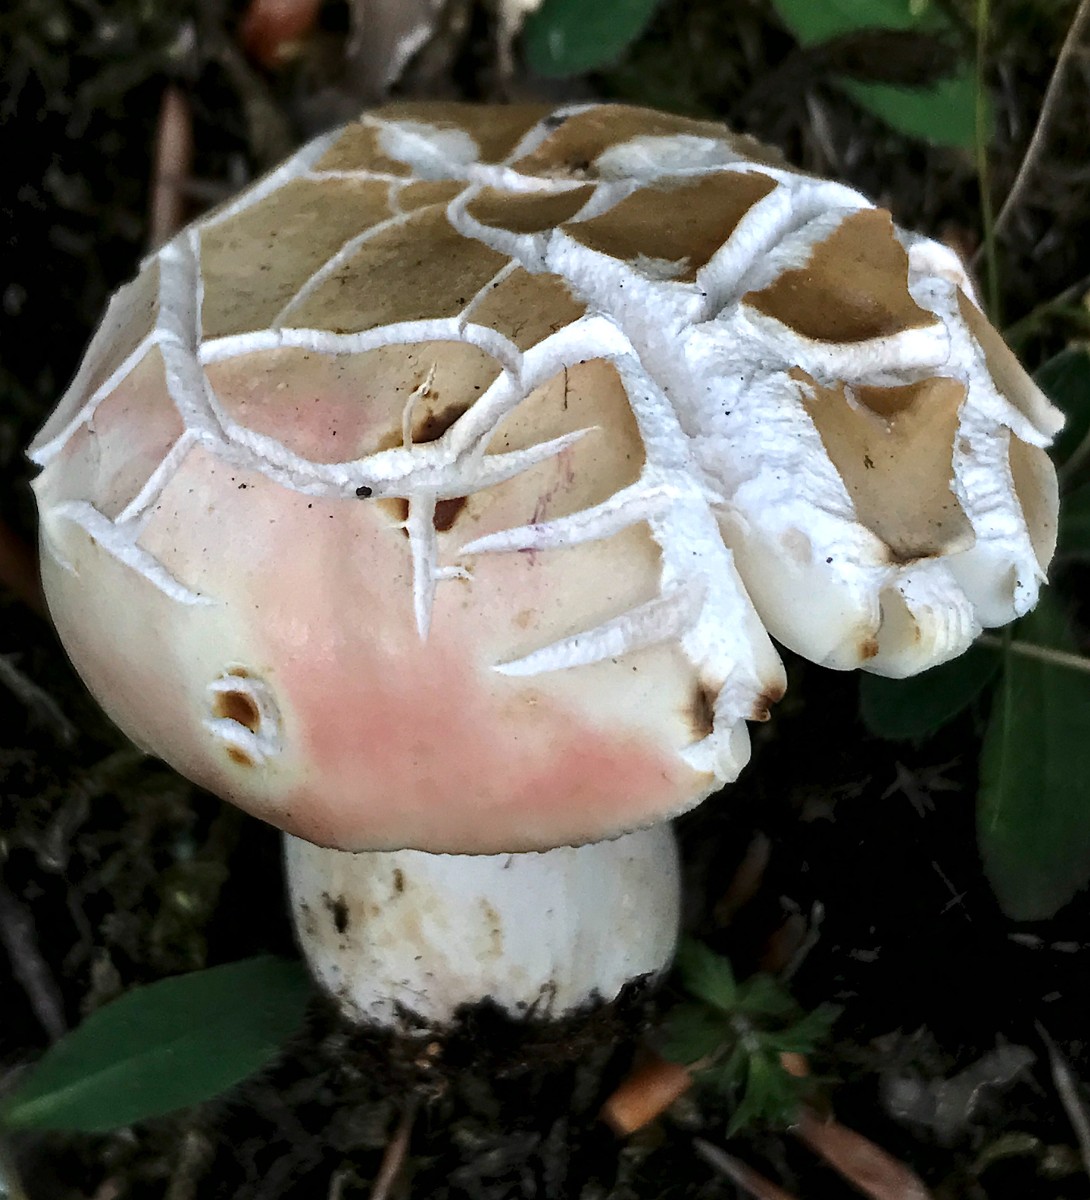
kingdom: Fungi
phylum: Basidiomycota
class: Agaricomycetes
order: Russulales
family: Russulaceae
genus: Russula
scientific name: Russula rosea
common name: fastkødet skørhat
